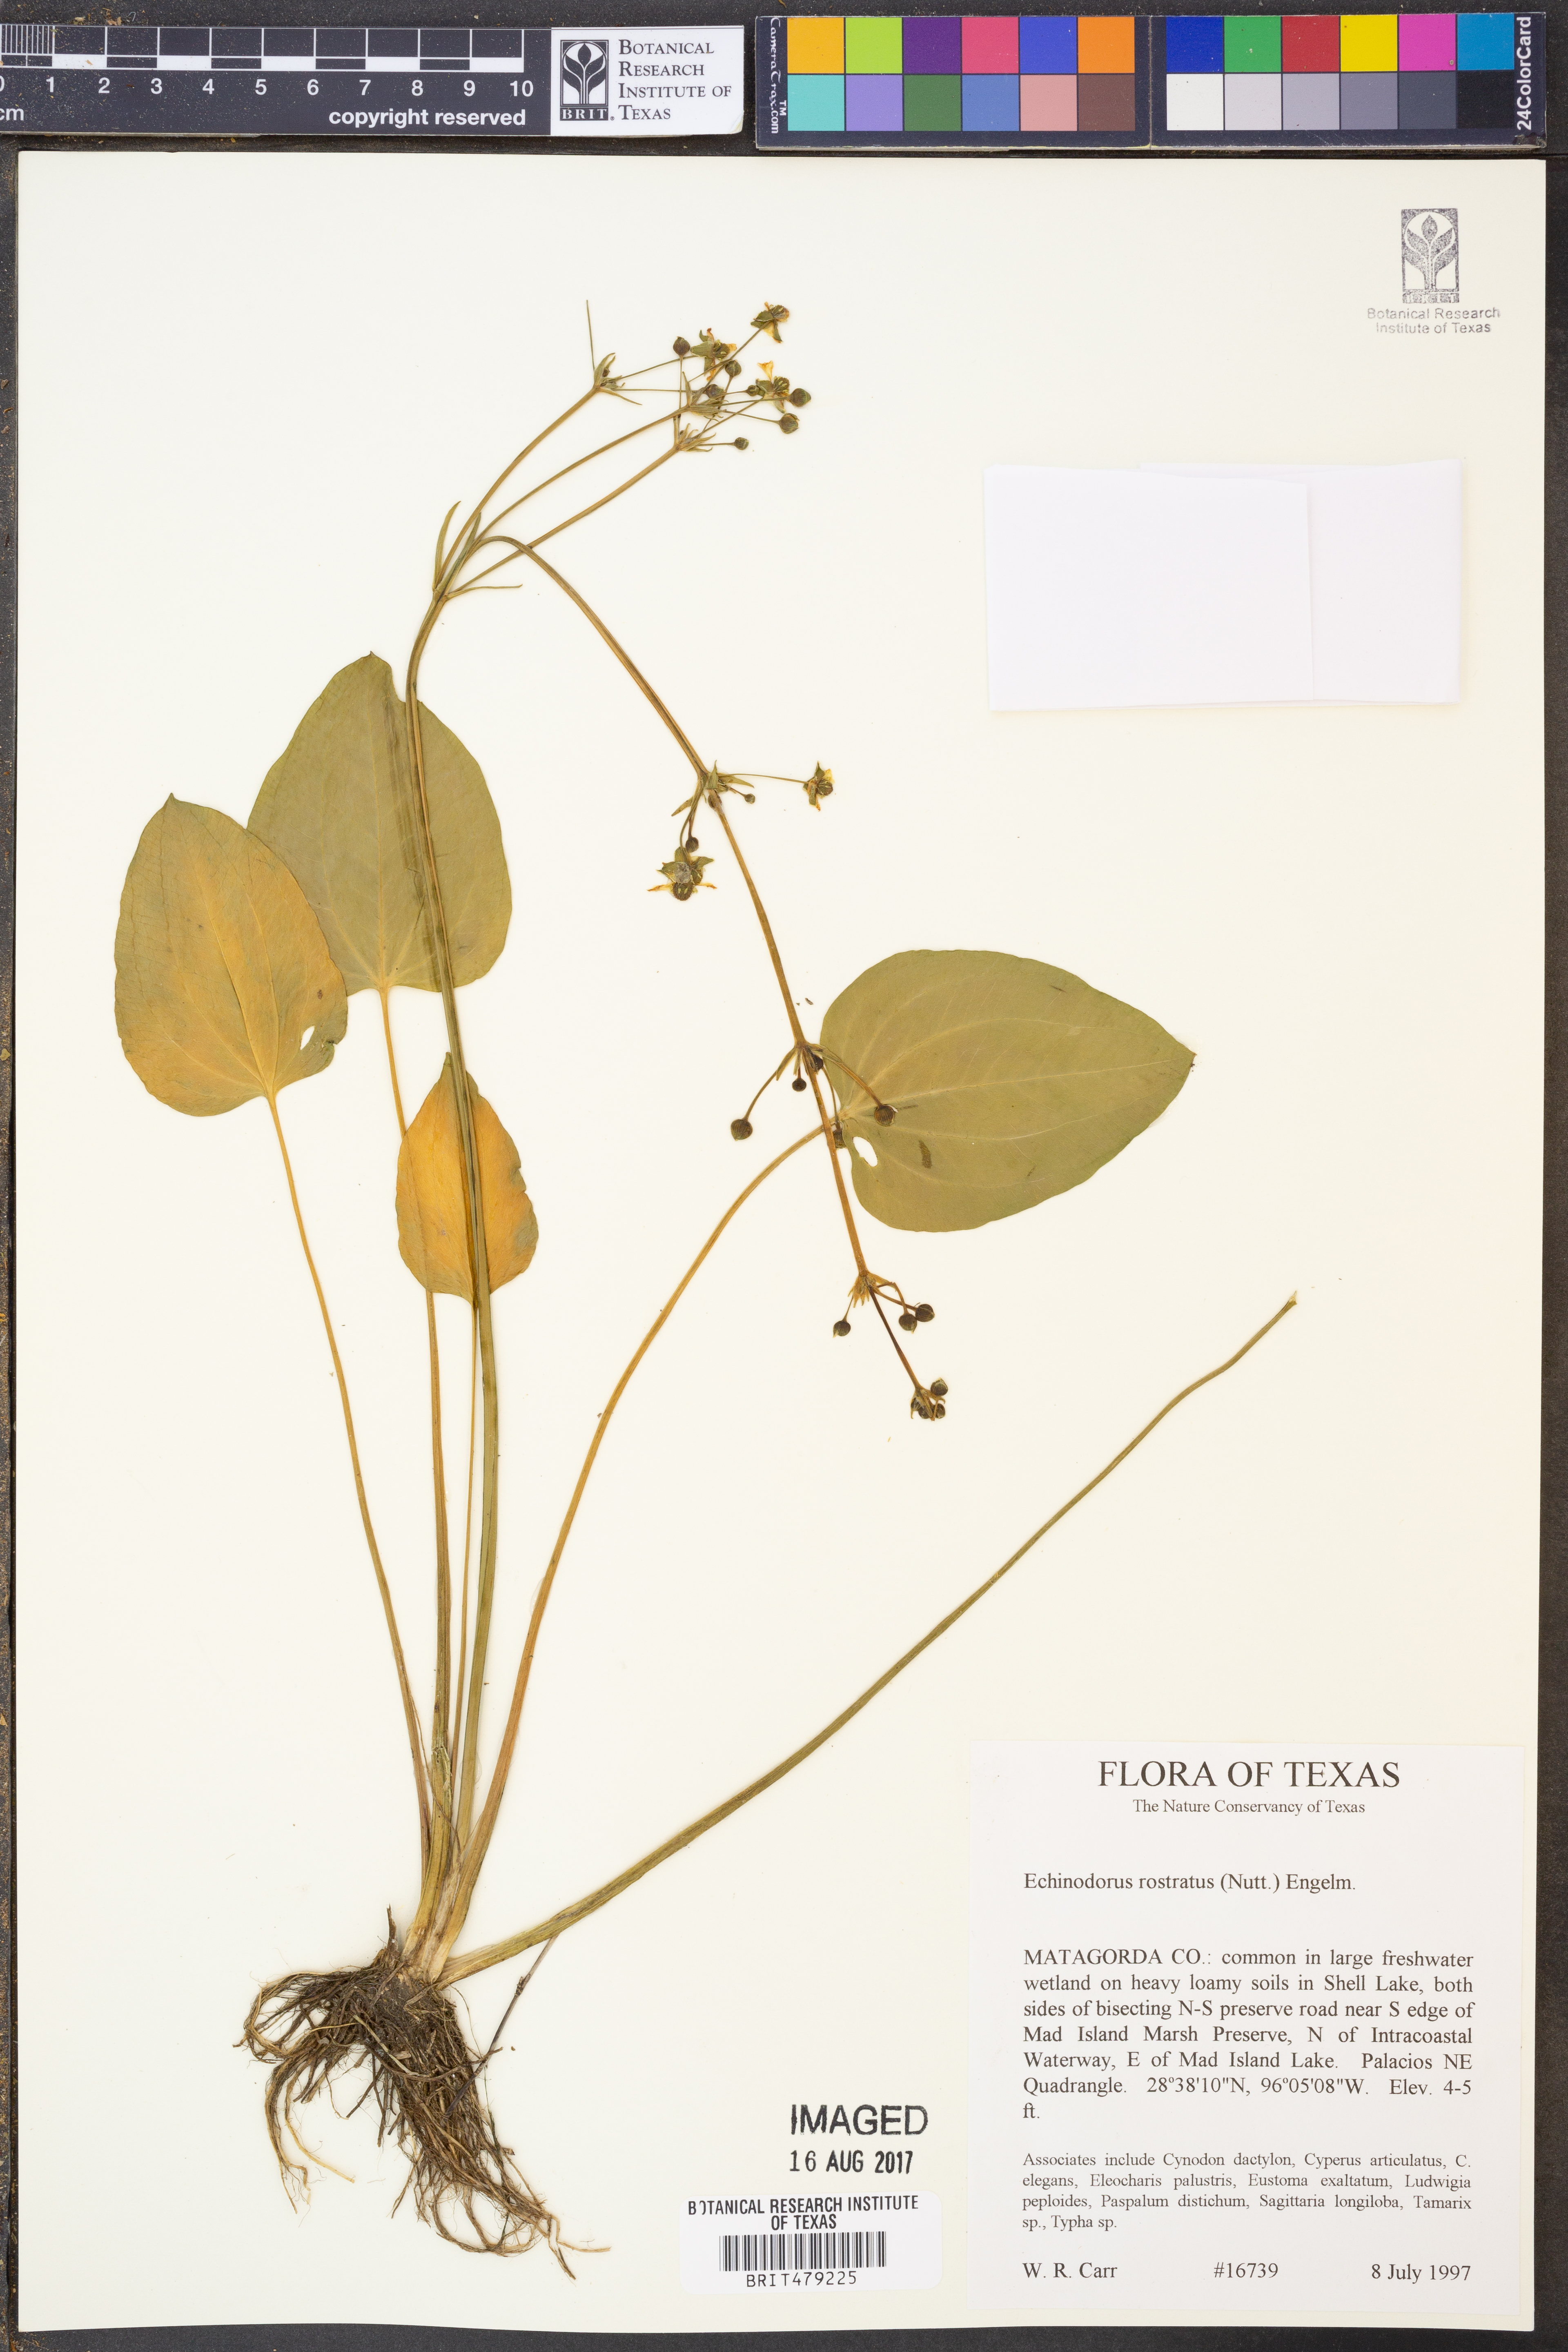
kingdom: Plantae
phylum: Tracheophyta
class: Liliopsida
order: Alismatales
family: Alismataceae
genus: Echinodorus
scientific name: Echinodorus berteroi
